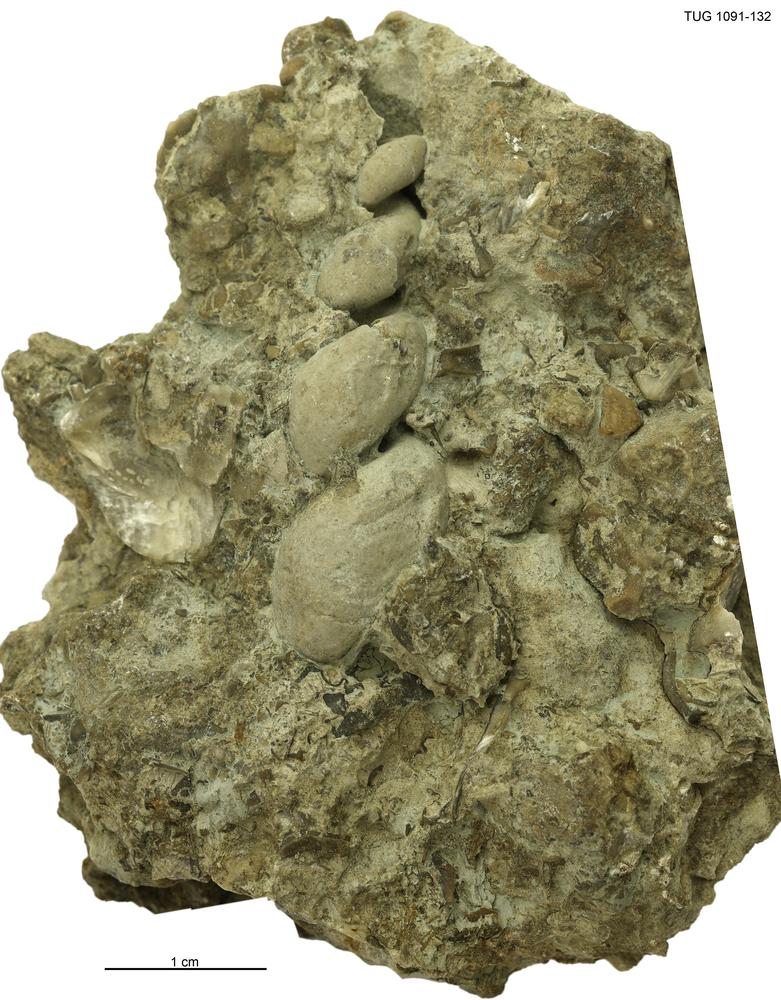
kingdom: Animalia
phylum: Mollusca
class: Gastropoda
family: Loxonematidae
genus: Loxonema
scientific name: Loxonema strangulatum
